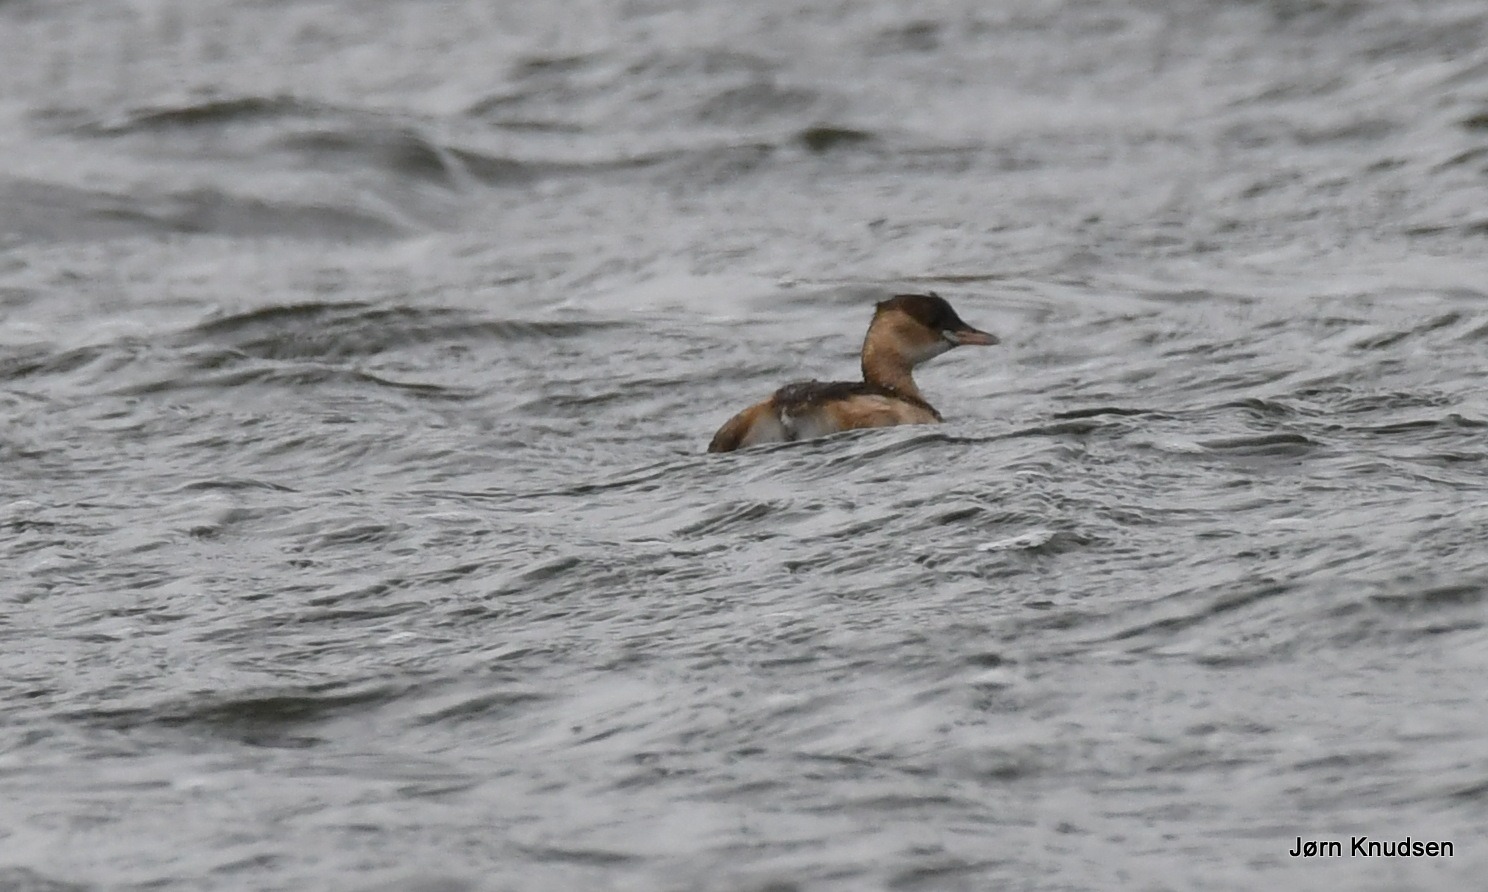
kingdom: Animalia
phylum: Chordata
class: Aves
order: Podicipediformes
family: Podicipedidae
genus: Tachybaptus
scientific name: Tachybaptus ruficollis
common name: Lille lappedykker
